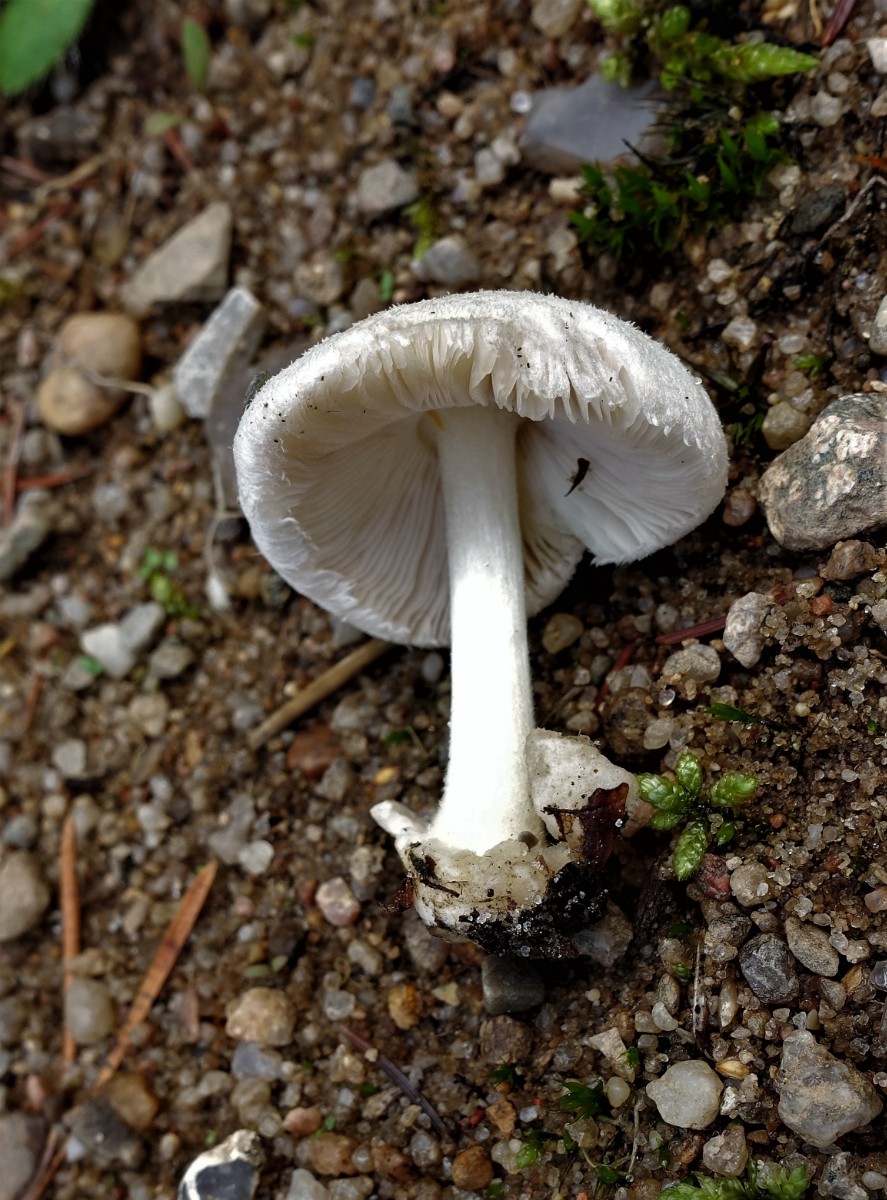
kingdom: Fungi
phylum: Basidiomycota
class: Agaricomycetes
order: Agaricales
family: Pluteaceae
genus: Volvariella
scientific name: Volvariella hypopithys
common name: dunstokket posesvamp
